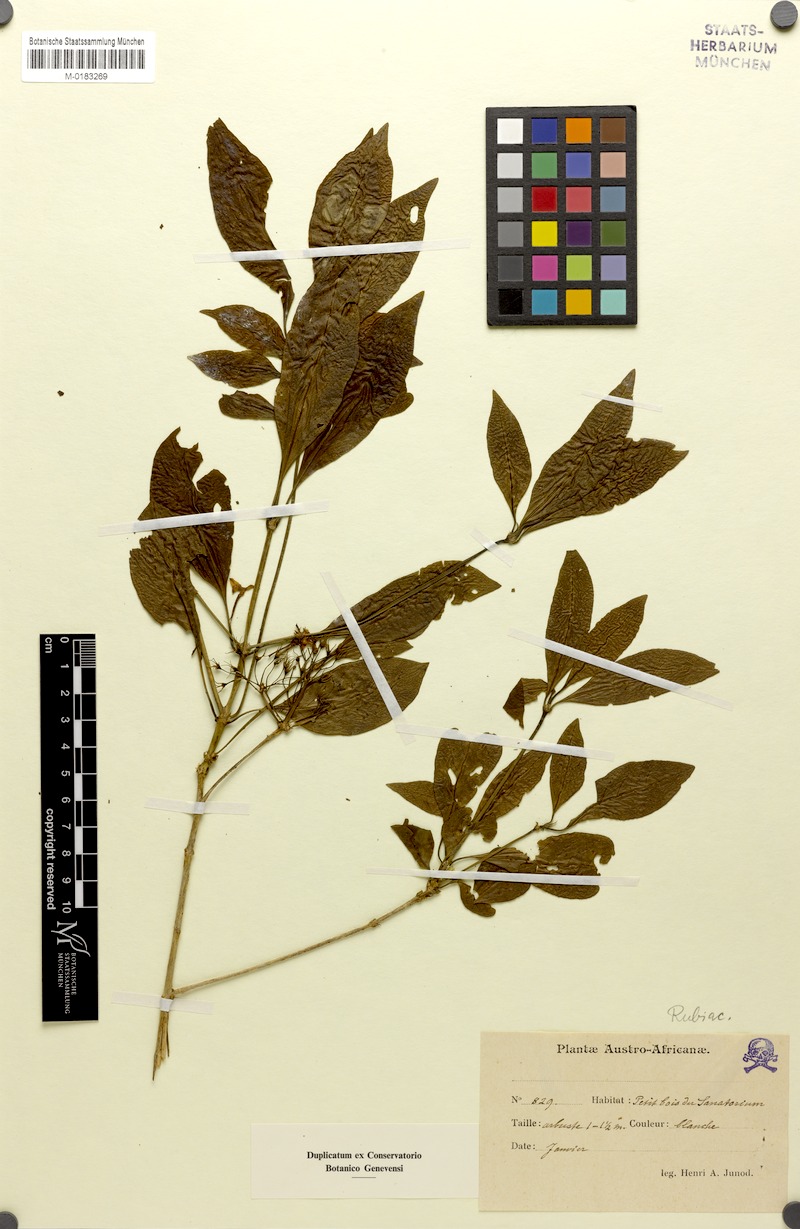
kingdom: Plantae
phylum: Tracheophyta
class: Magnoliopsida
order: Gentianales
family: Rubiaceae
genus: Pavetta
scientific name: Pavetta trichardtensis
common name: Soutpansberg brides-bush
